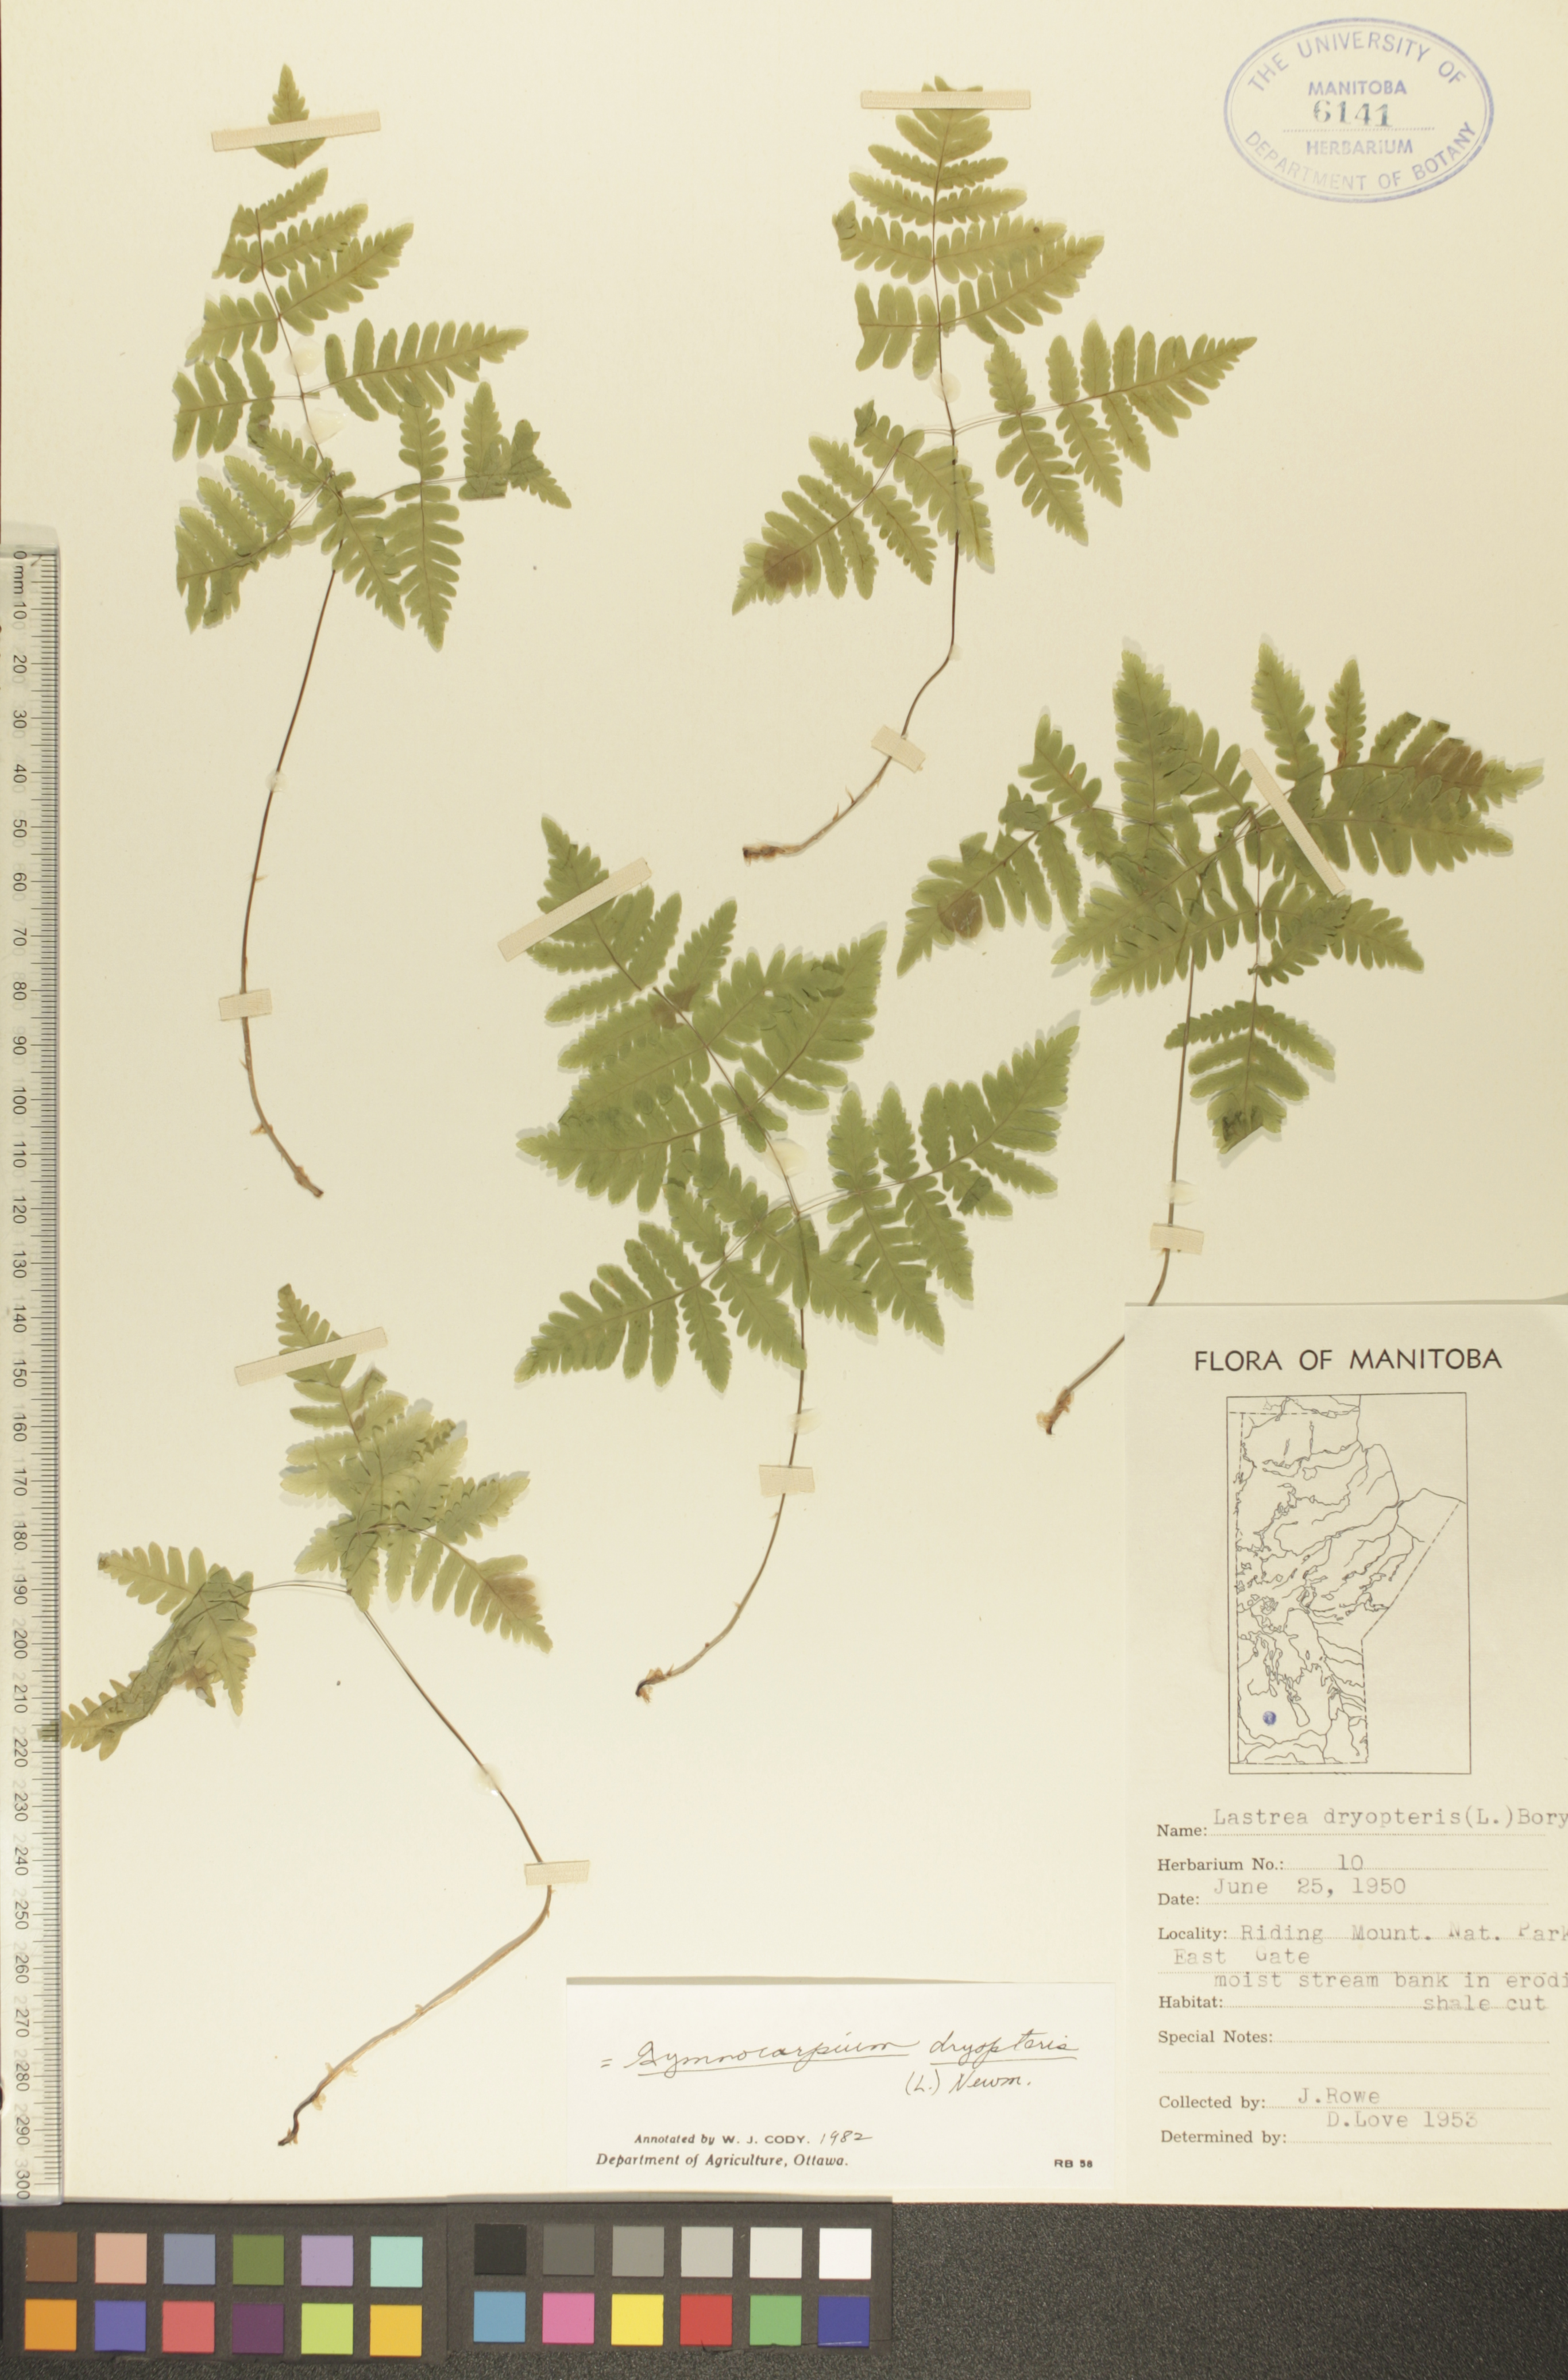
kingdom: Plantae
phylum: Tracheophyta
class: Polypodiopsida
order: Polypodiales
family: Cystopteridaceae
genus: Gymnocarpium
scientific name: Gymnocarpium dryopteris
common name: Oak fern
